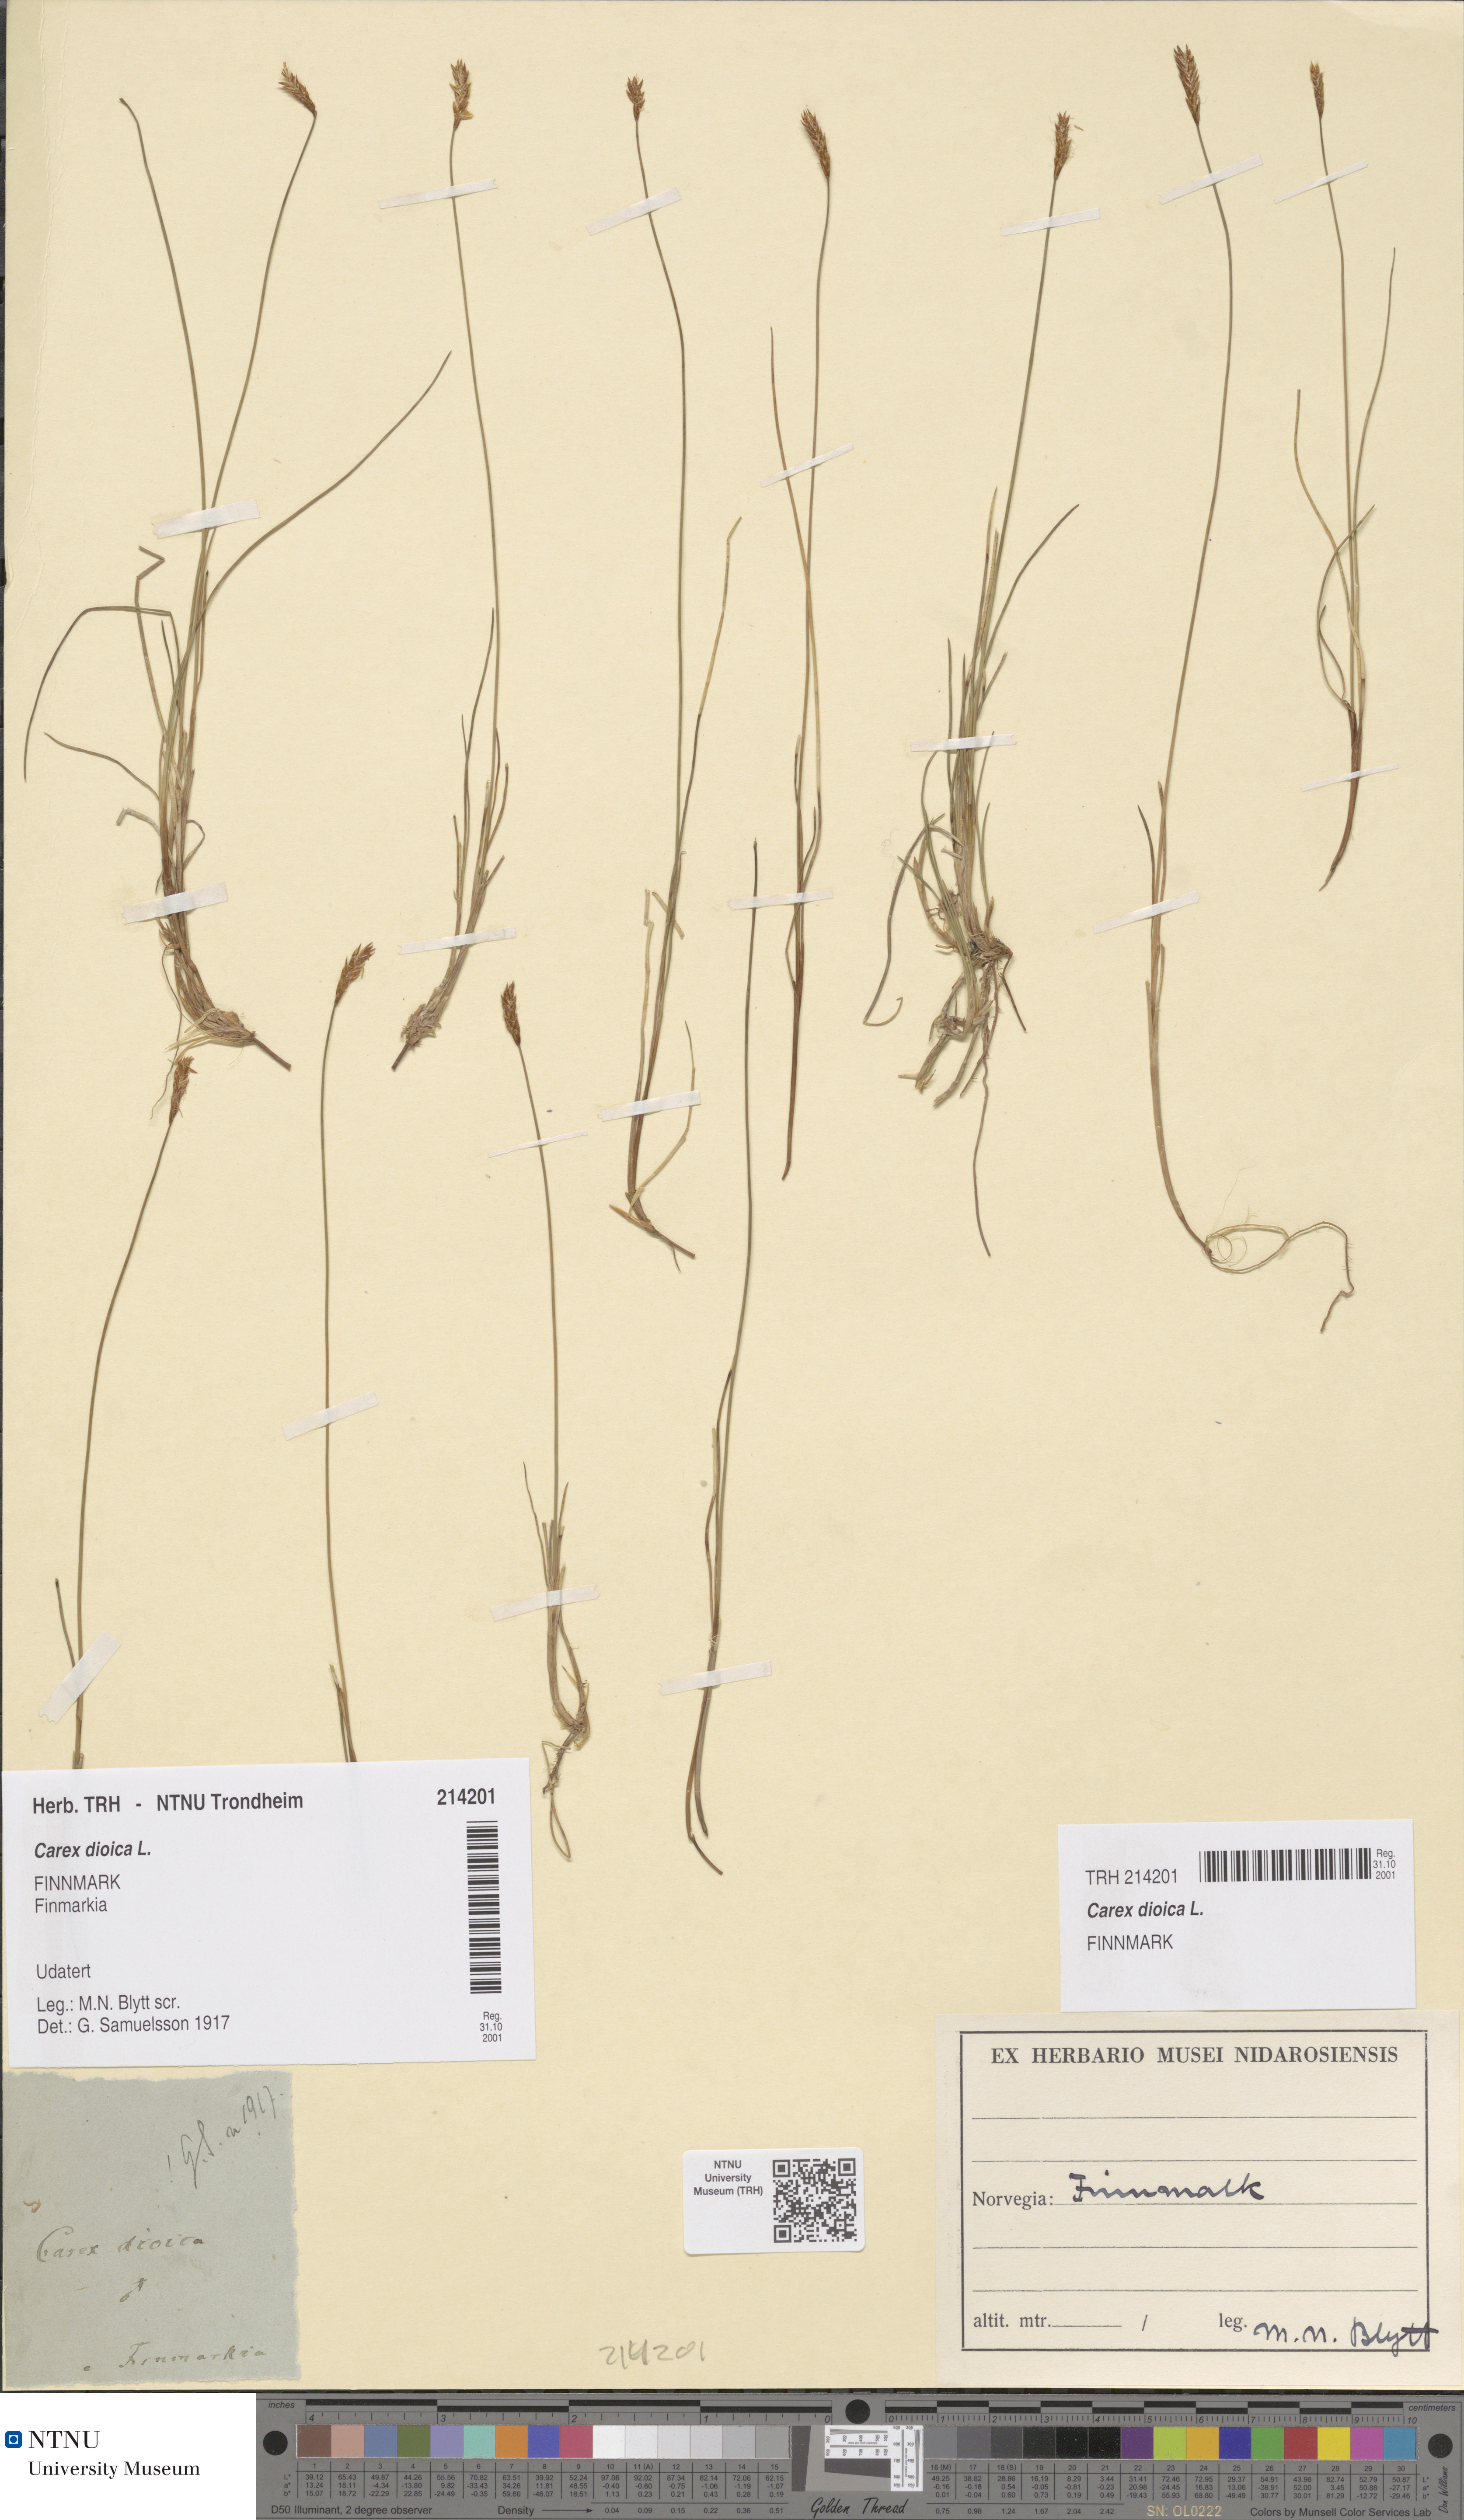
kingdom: Plantae
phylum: Tracheophyta
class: Liliopsida
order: Poales
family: Cyperaceae
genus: Carex
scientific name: Carex dioica
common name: Dioecious sedge
